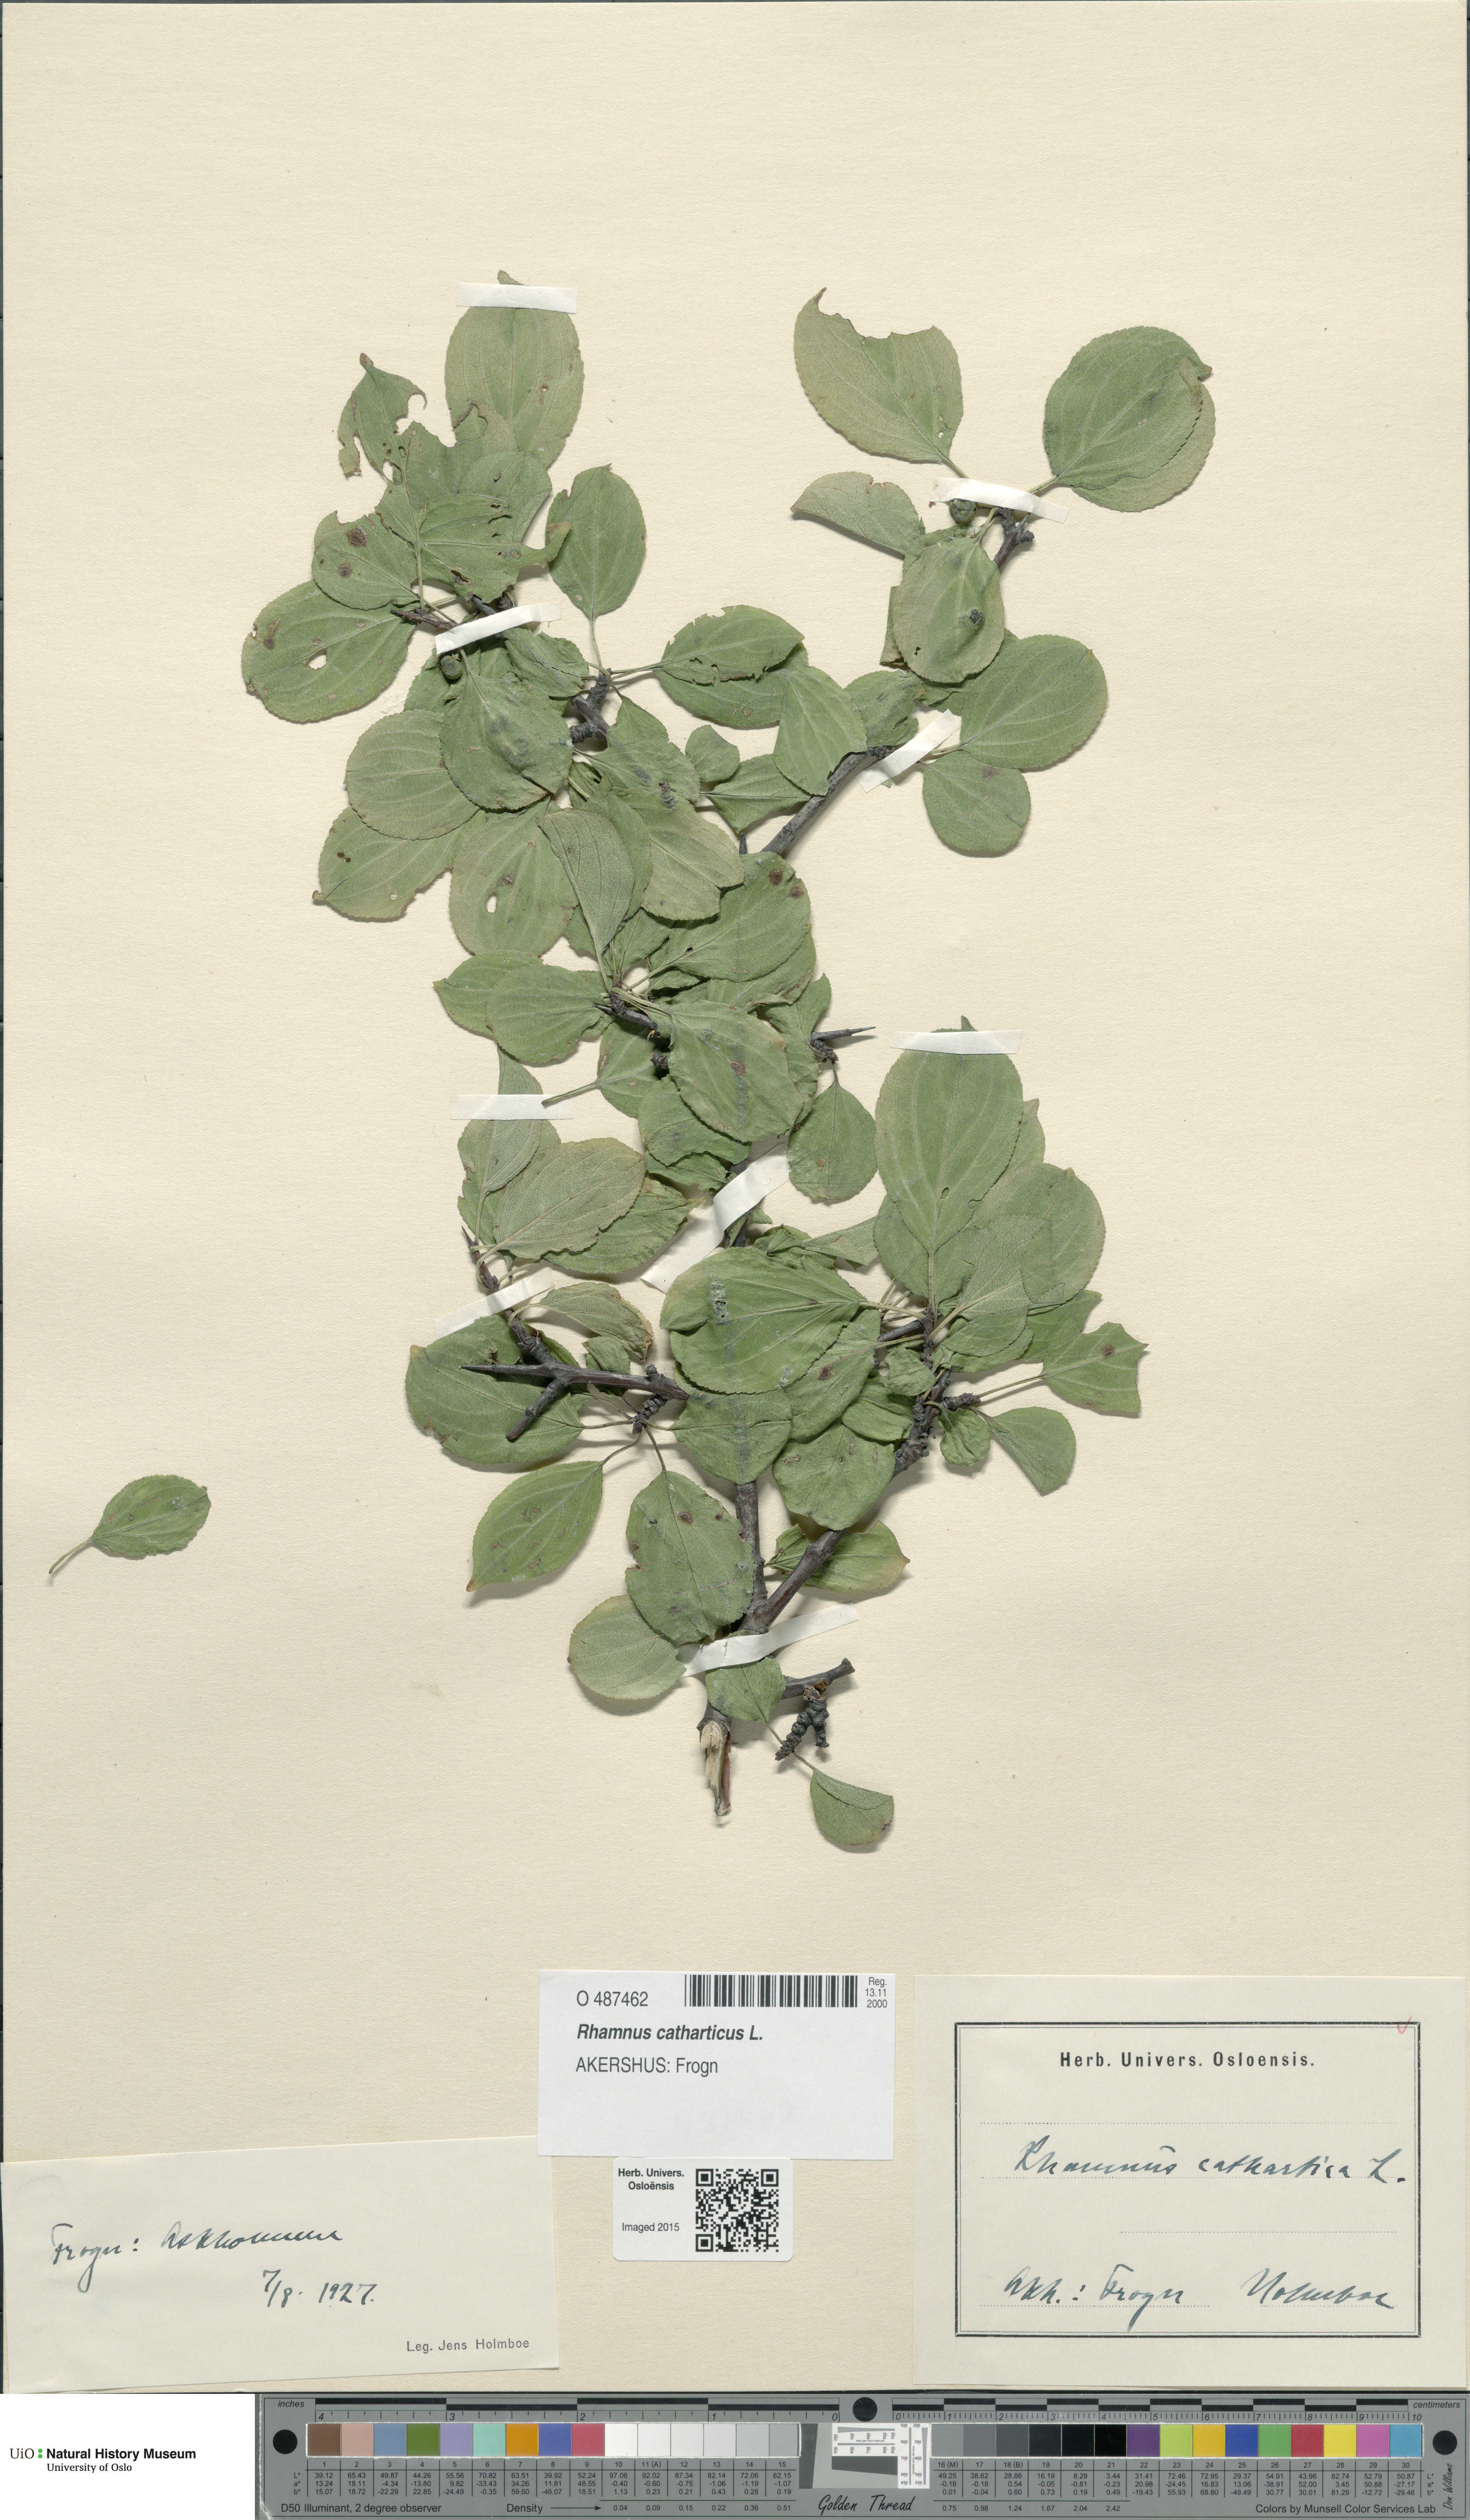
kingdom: Plantae
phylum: Tracheophyta
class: Magnoliopsida
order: Rosales
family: Rhamnaceae
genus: Rhamnus
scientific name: Rhamnus cathartica
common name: Common buckthorn
